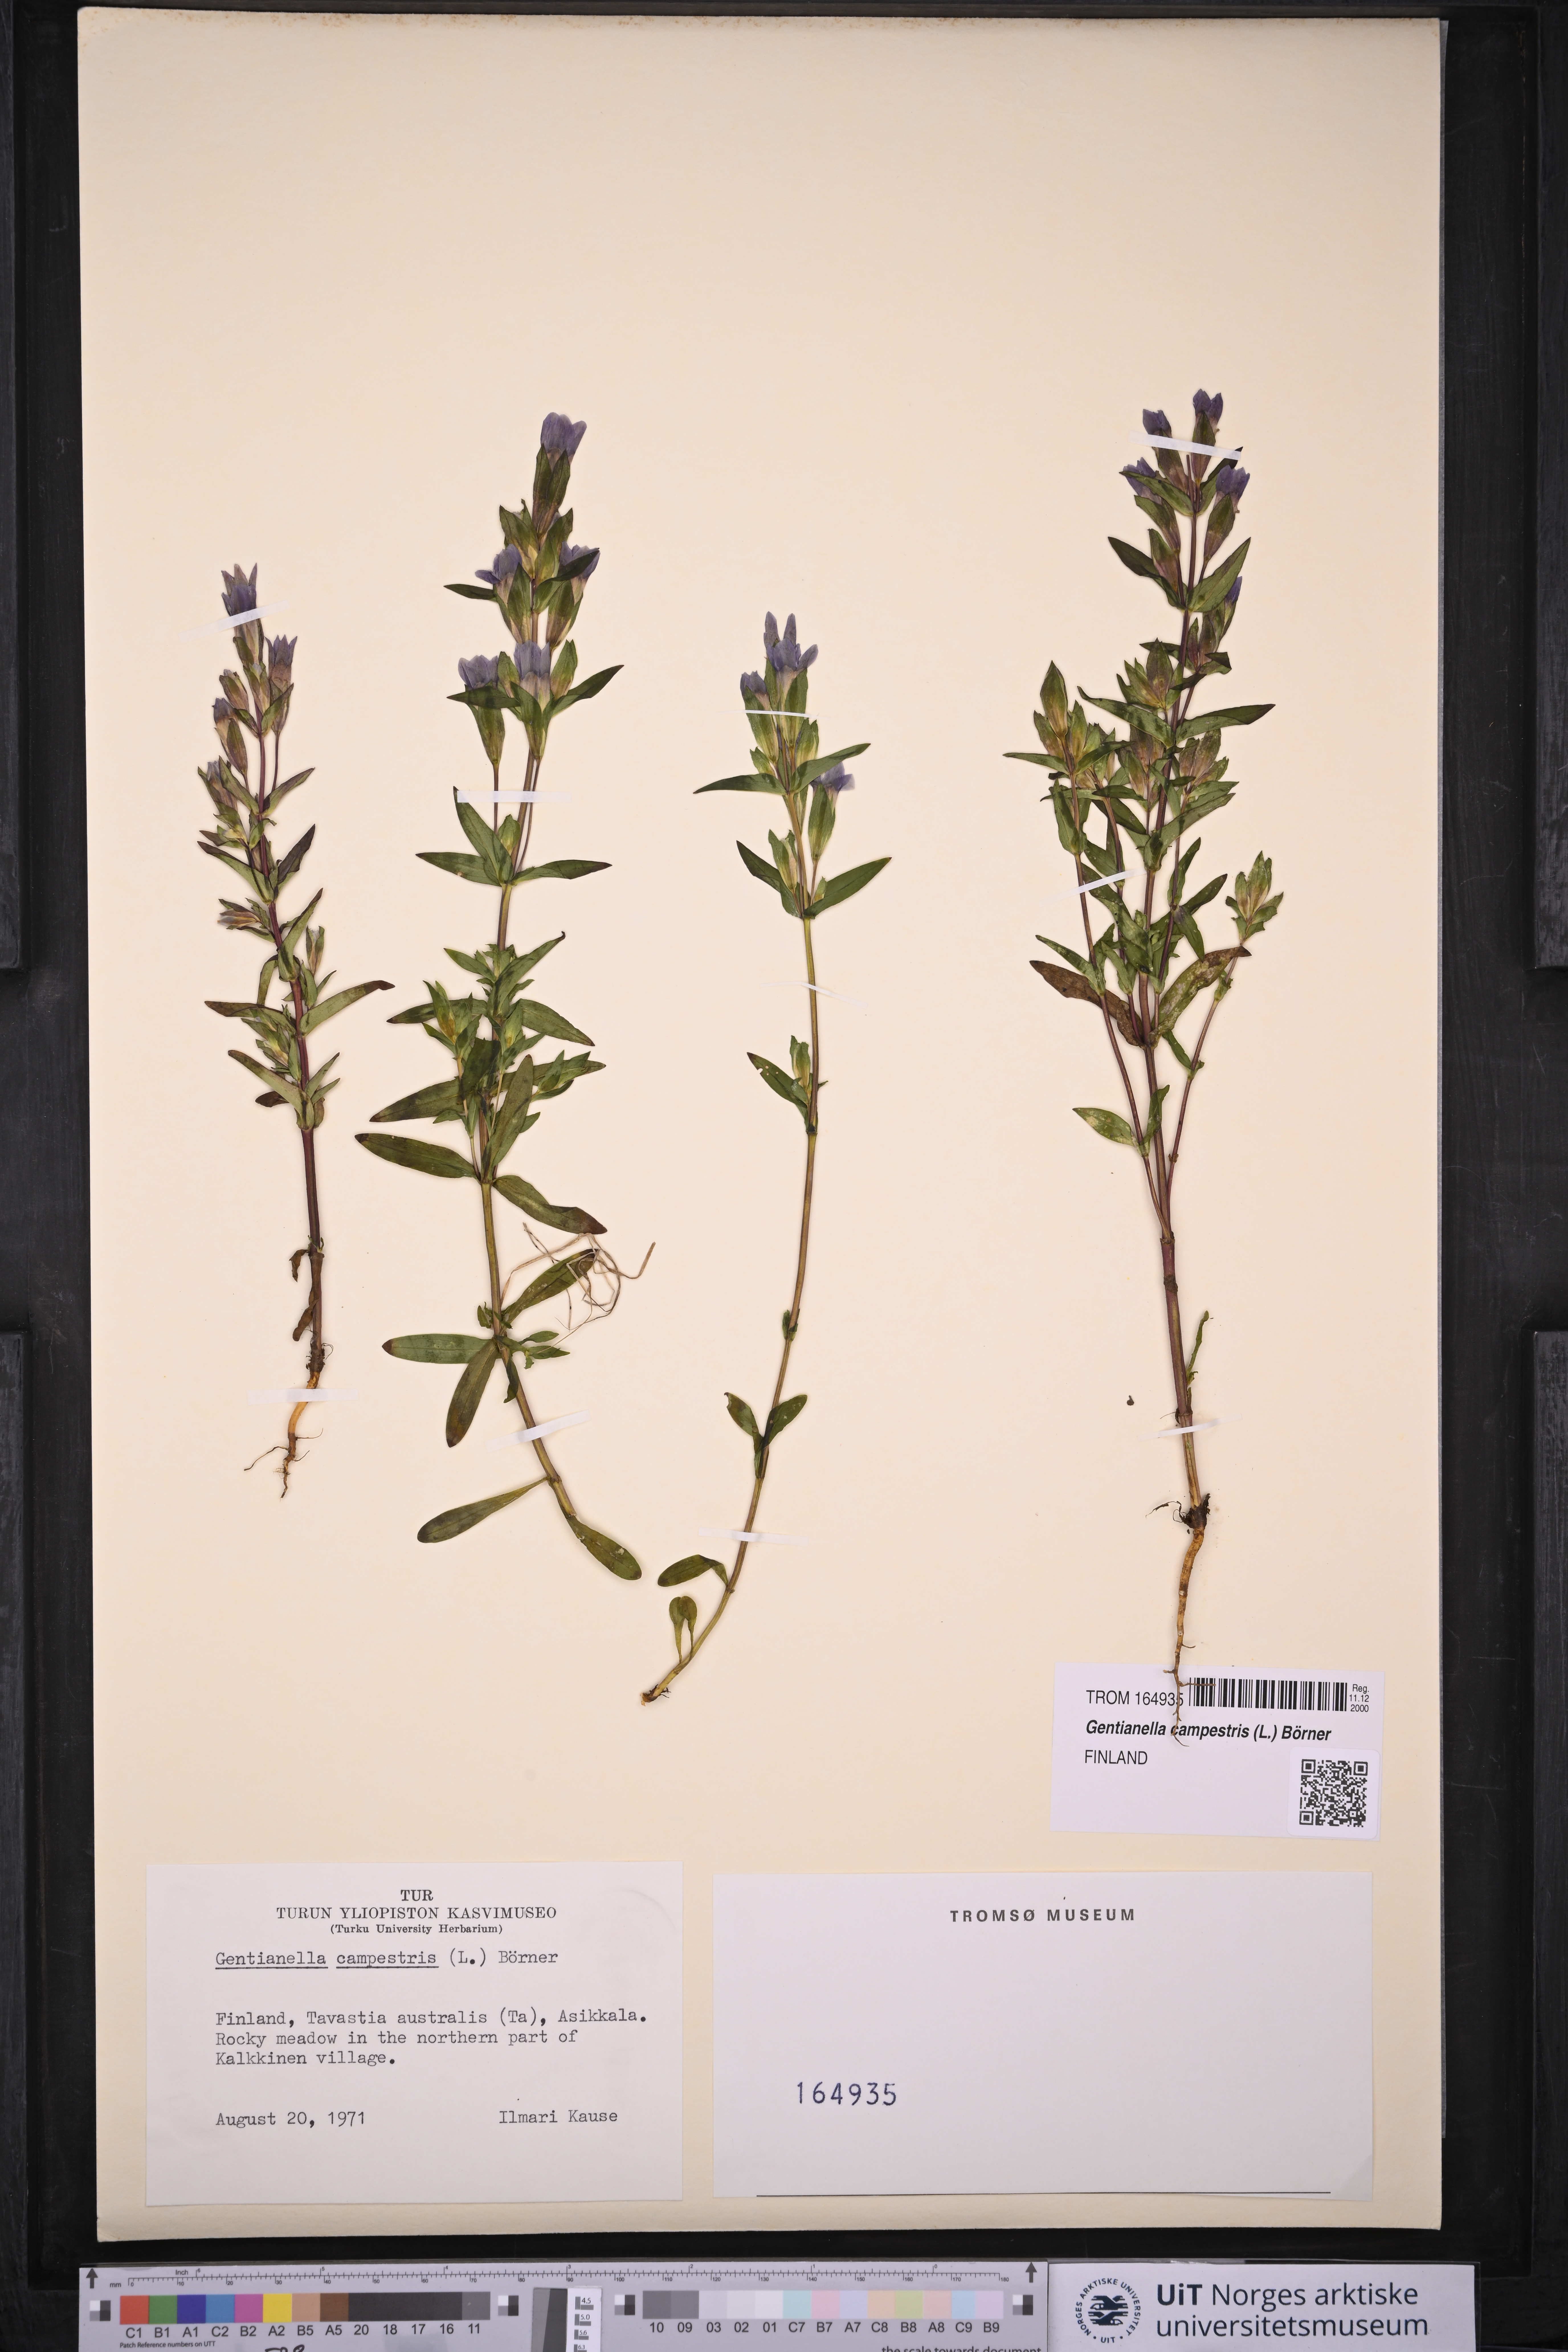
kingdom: Plantae
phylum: Tracheophyta
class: Magnoliopsida
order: Gentianales
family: Gentianaceae
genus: Gentianella
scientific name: Gentianella campestris
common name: Field gentian
